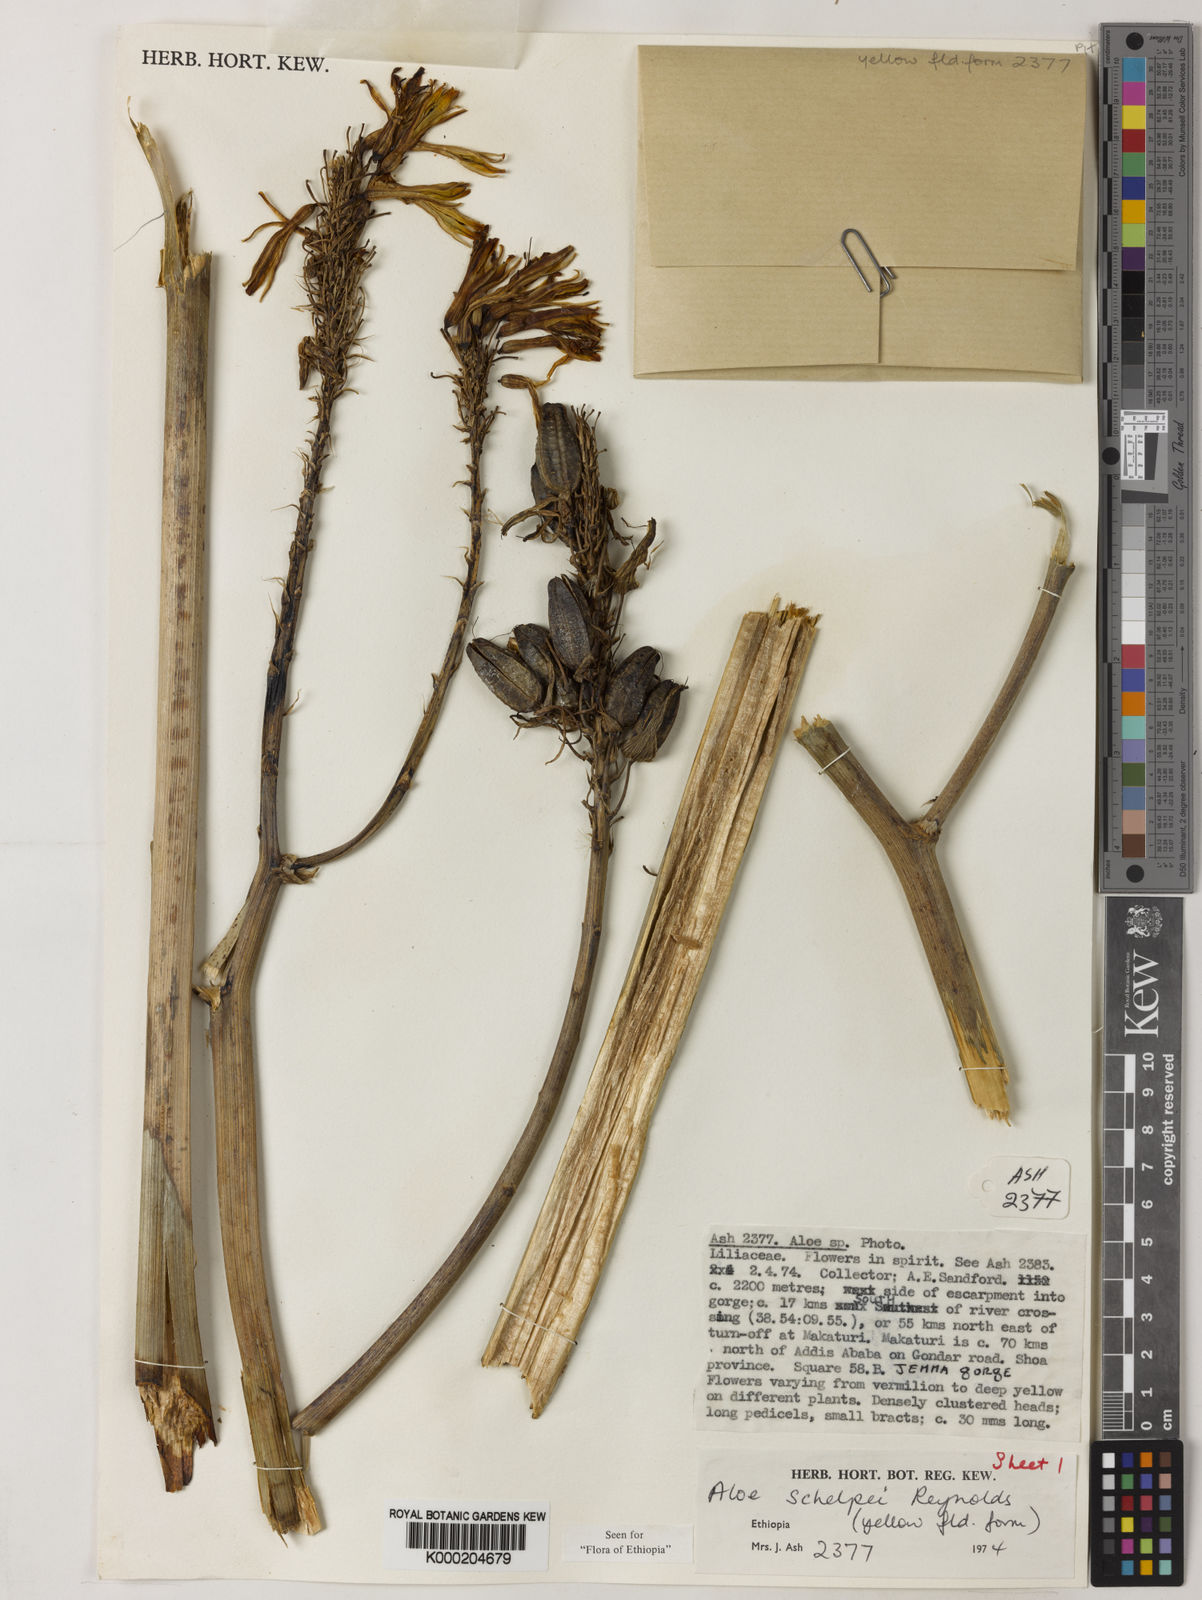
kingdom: Plantae
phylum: Tracheophyta
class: Liliopsida
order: Asparagales
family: Asphodelaceae
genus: Aloe
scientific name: Aloe schelpei
